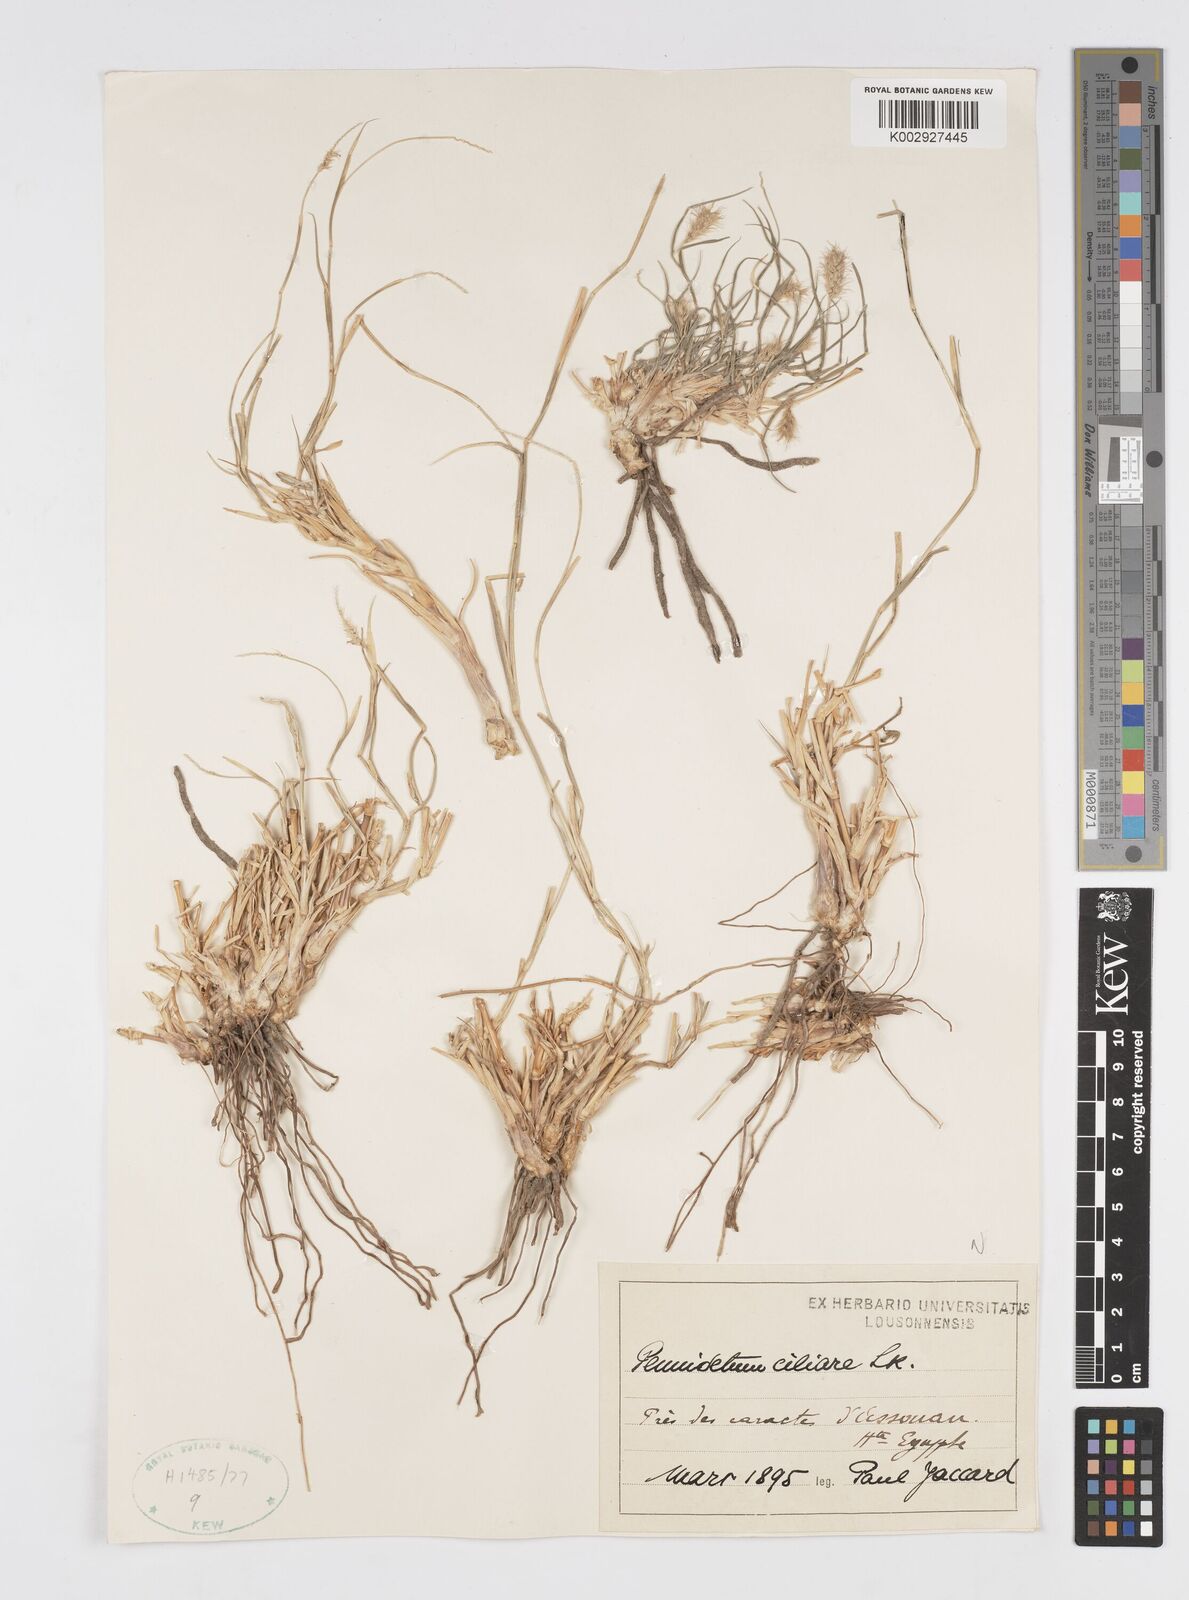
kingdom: Plantae
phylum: Tracheophyta
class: Liliopsida
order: Poales
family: Poaceae
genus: Cenchrus
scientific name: Cenchrus ciliaris
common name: Buffelgrass
